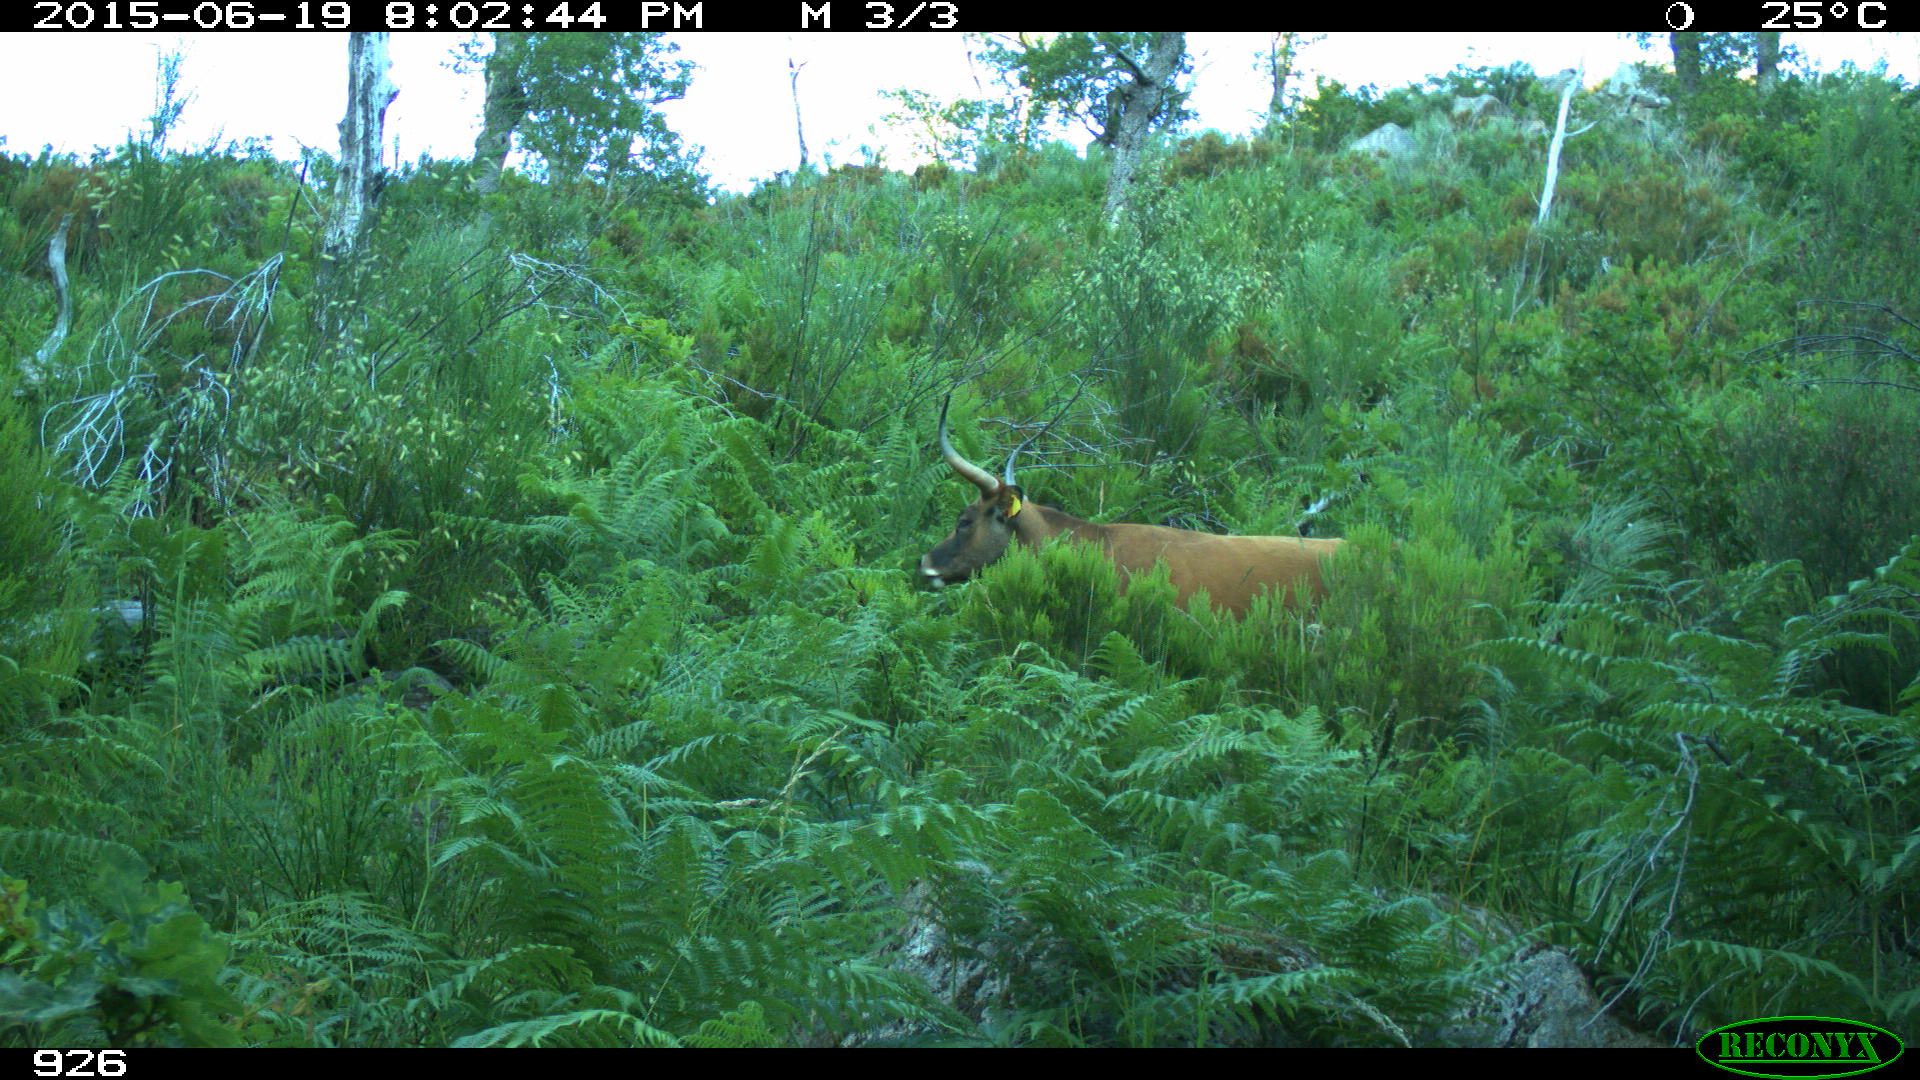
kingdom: Animalia
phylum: Chordata
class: Mammalia
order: Artiodactyla
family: Bovidae
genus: Bos
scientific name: Bos taurus
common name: Domesticated cattle
